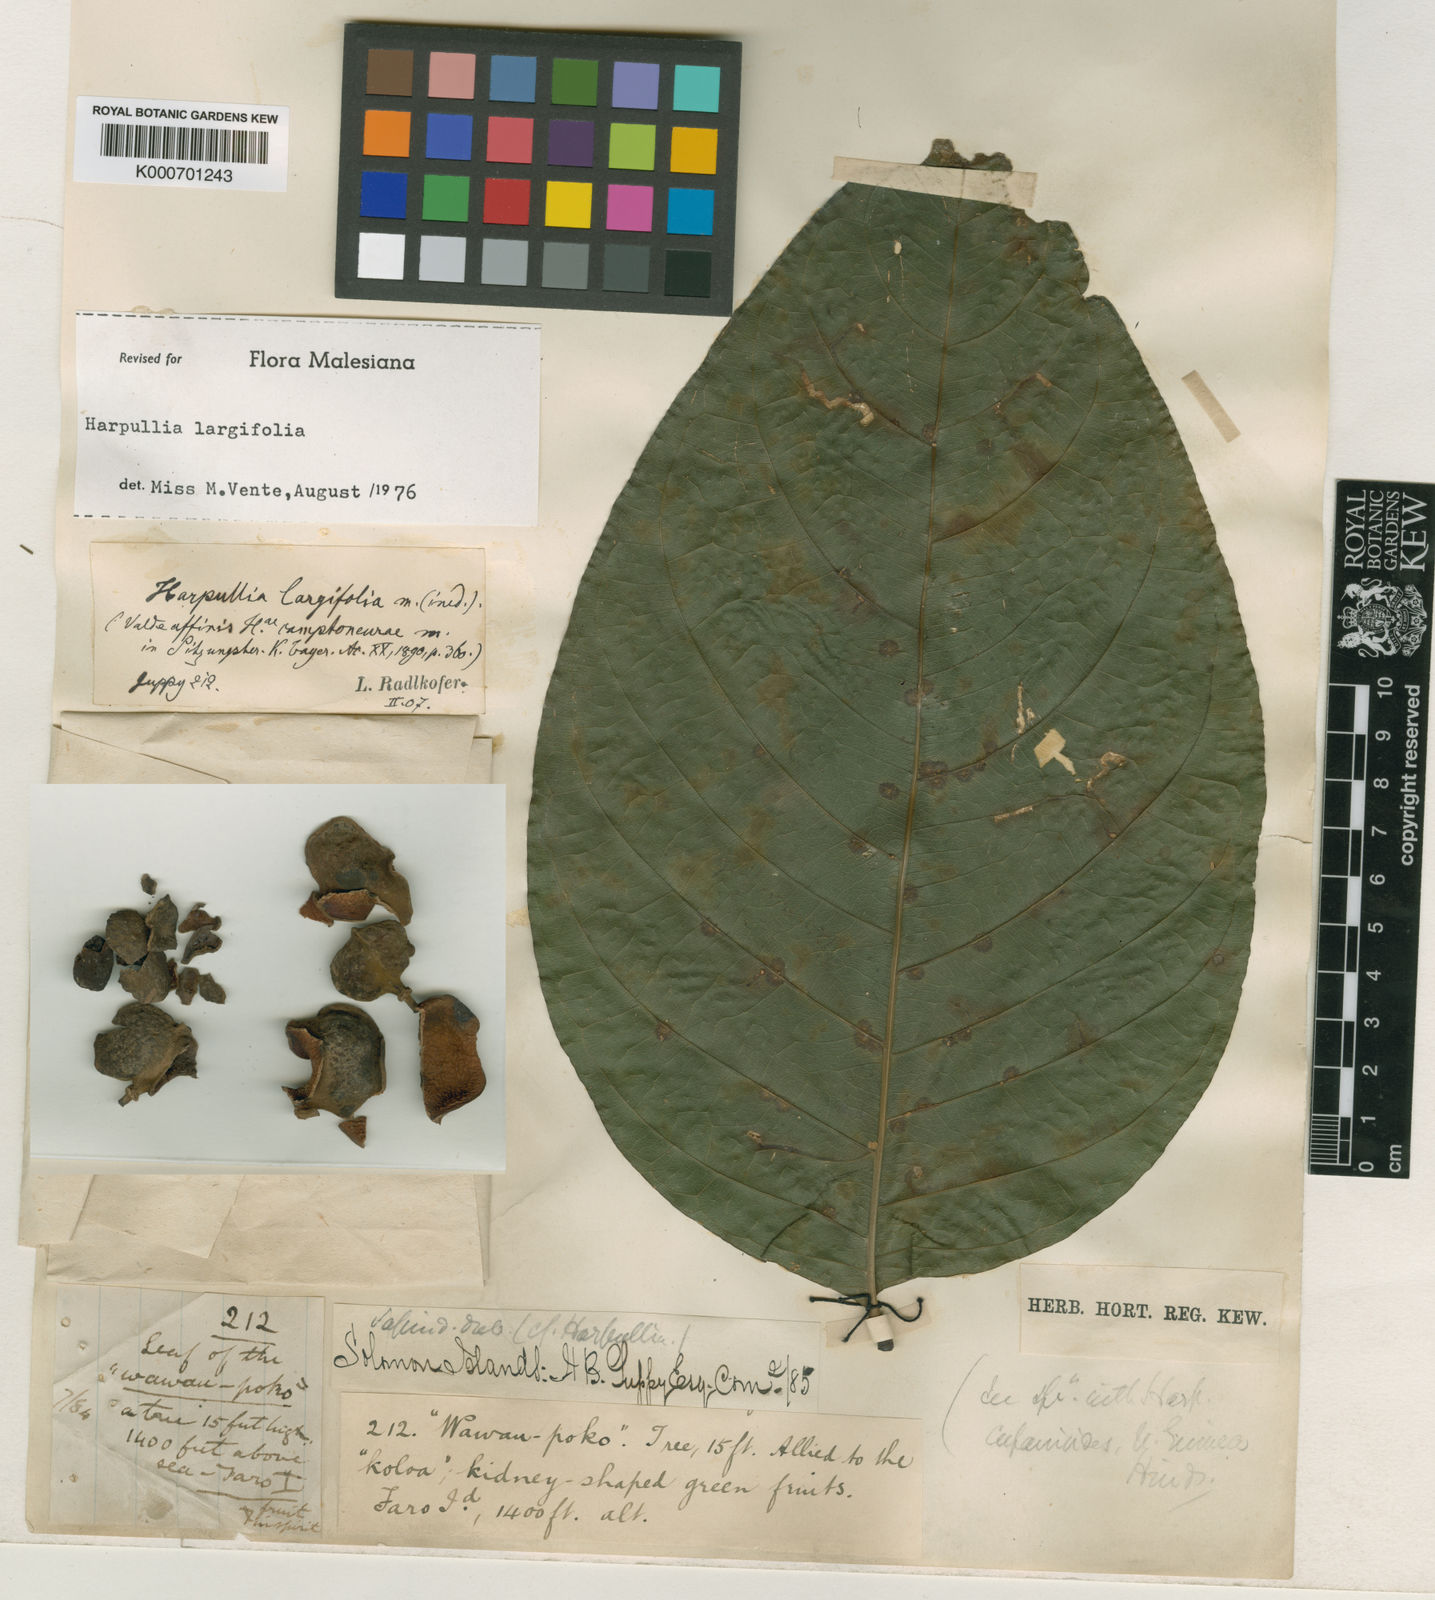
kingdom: Plantae
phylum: Tracheophyta
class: Magnoliopsida
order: Sapindales
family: Sapindaceae
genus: Harpullia
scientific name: Harpullia camptoneura
